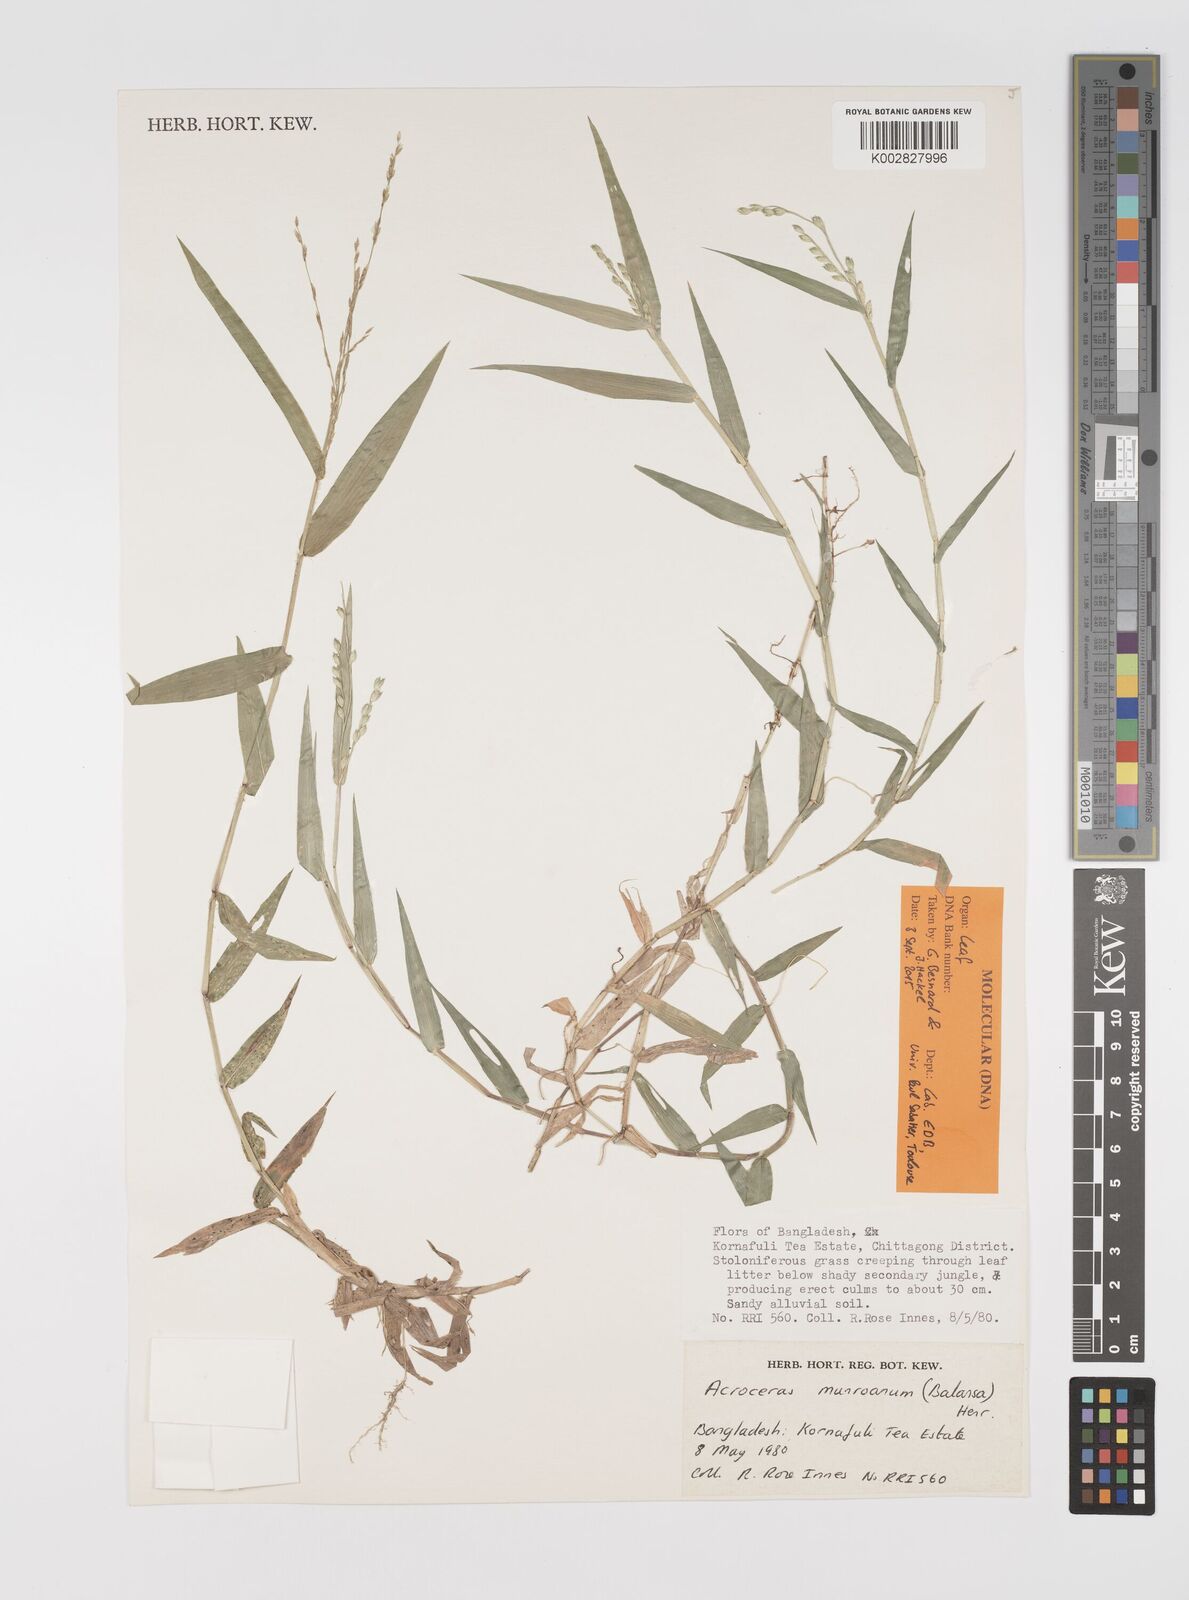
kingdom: Plantae
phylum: Tracheophyta
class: Liliopsida
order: Poales
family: Poaceae
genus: Acroceras
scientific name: Acroceras munroanum
